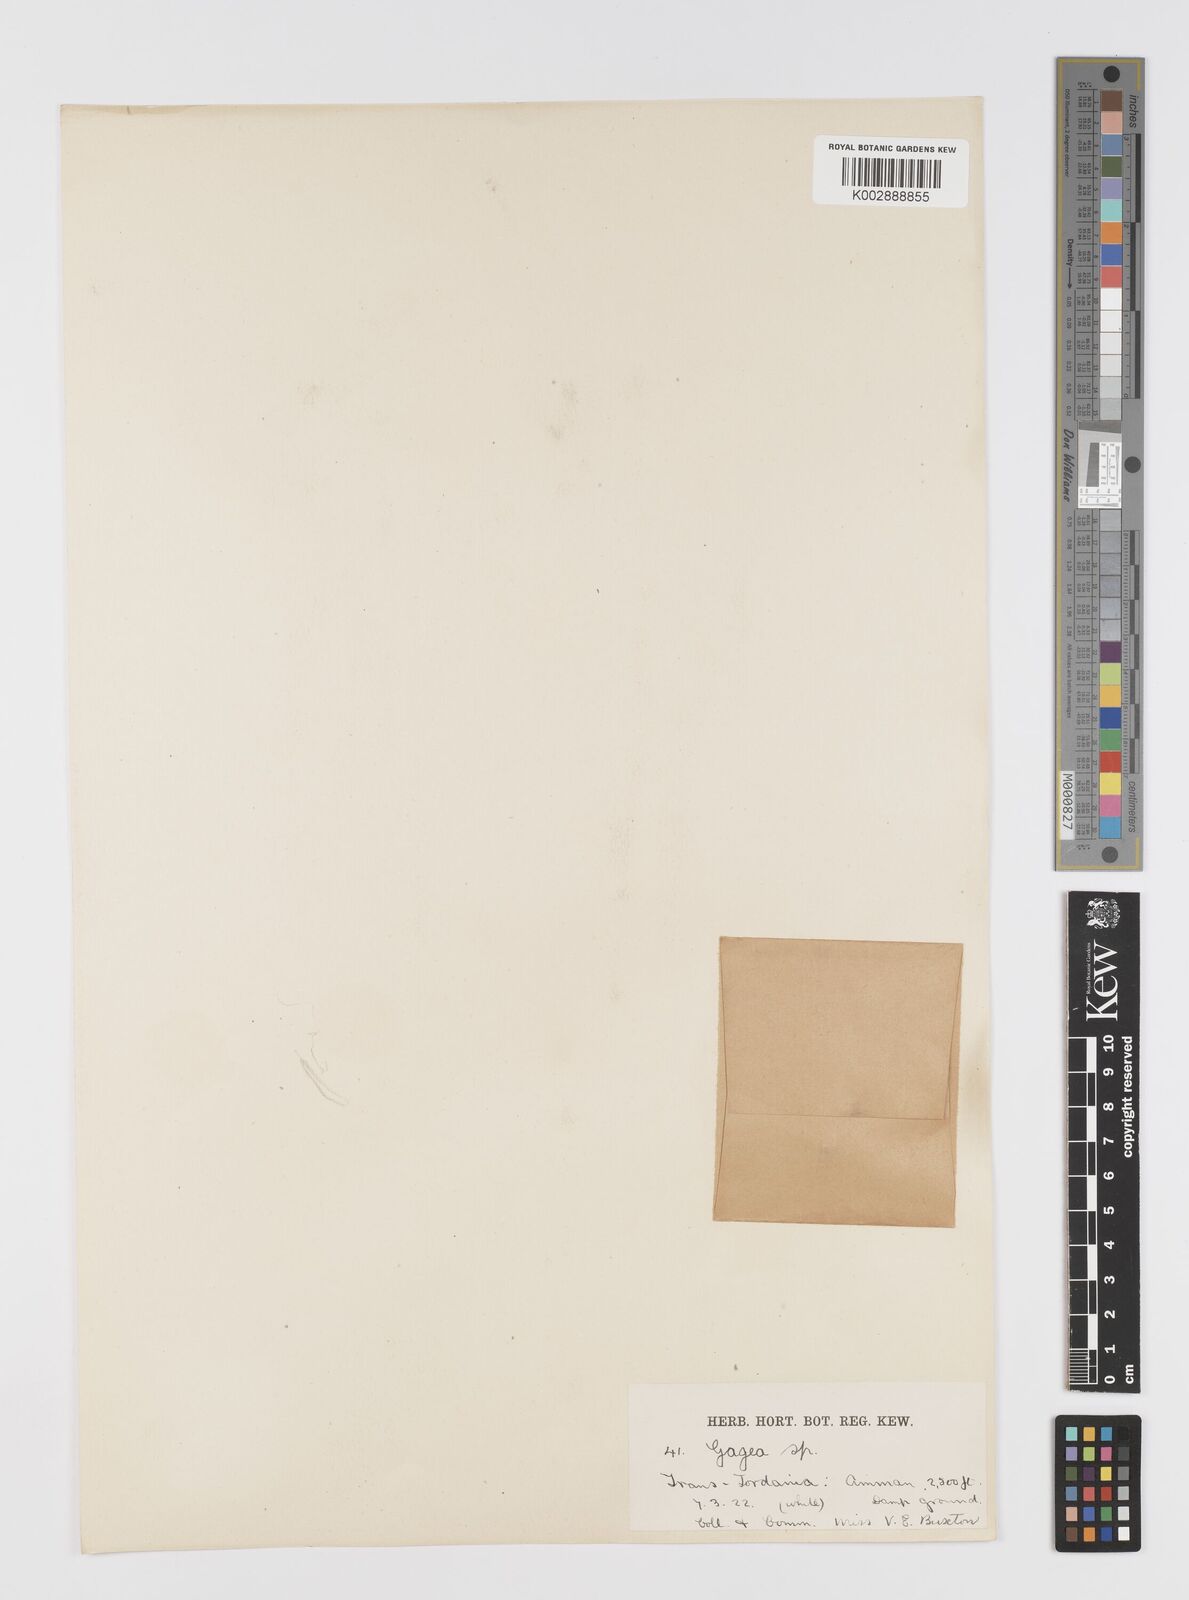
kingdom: Plantae
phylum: Tracheophyta
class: Liliopsida
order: Liliales
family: Liliaceae
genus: Gagea
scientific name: Gagea
